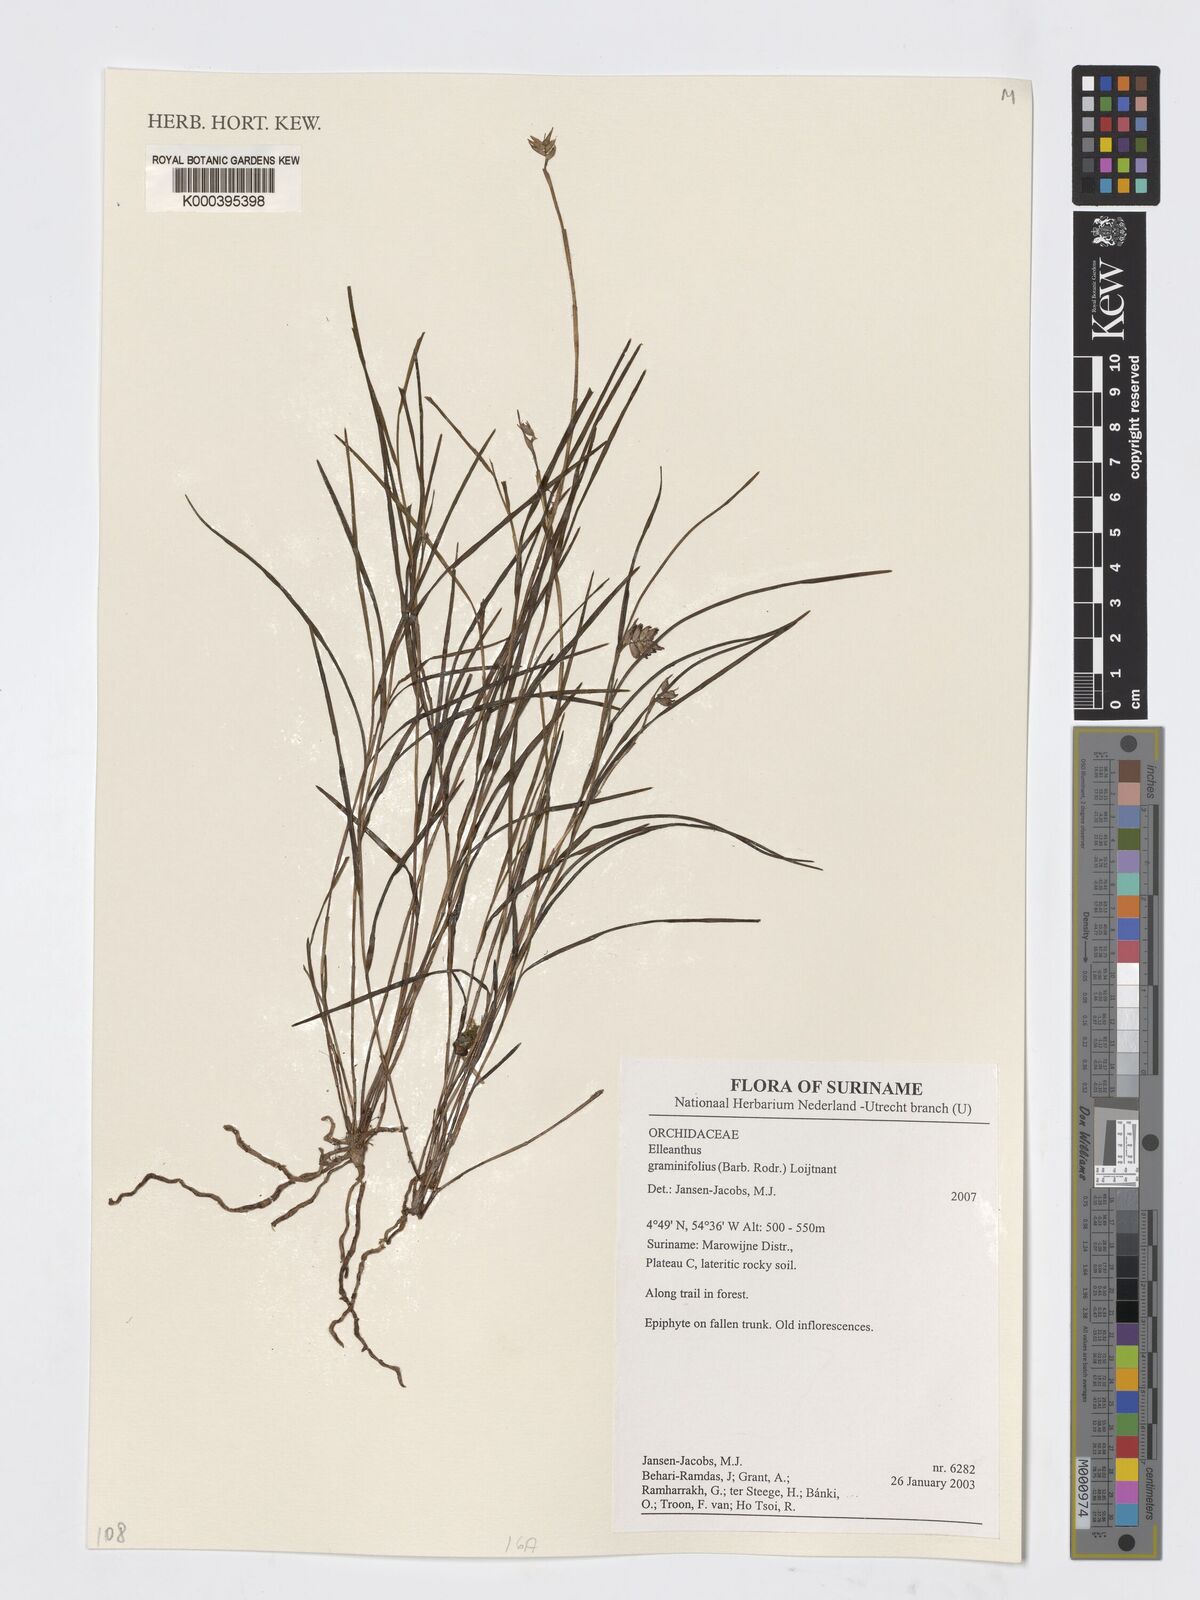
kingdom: Plantae
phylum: Tracheophyta
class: Liliopsida
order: Asparagales
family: Orchidaceae
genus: Elleanthus
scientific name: Elleanthus
